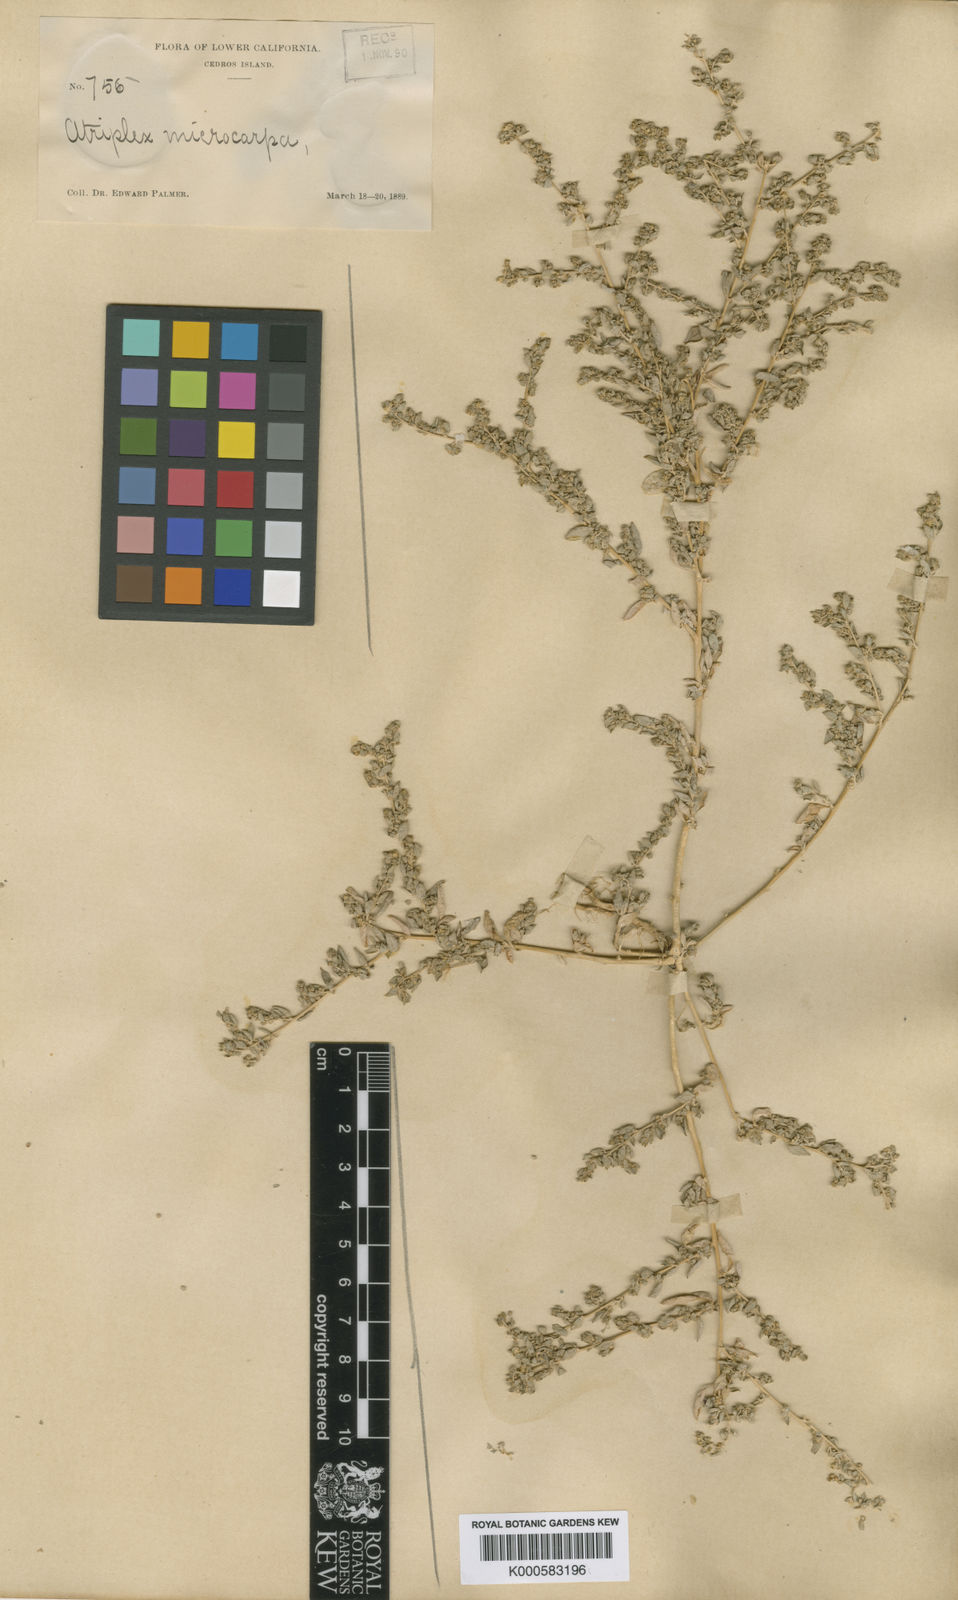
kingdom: Plantae
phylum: Tracheophyta
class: Magnoliopsida
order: Caryophyllales
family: Amaranthaceae
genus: Atriplex
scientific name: Atriplex prostrata
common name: Spear-leaved orache
